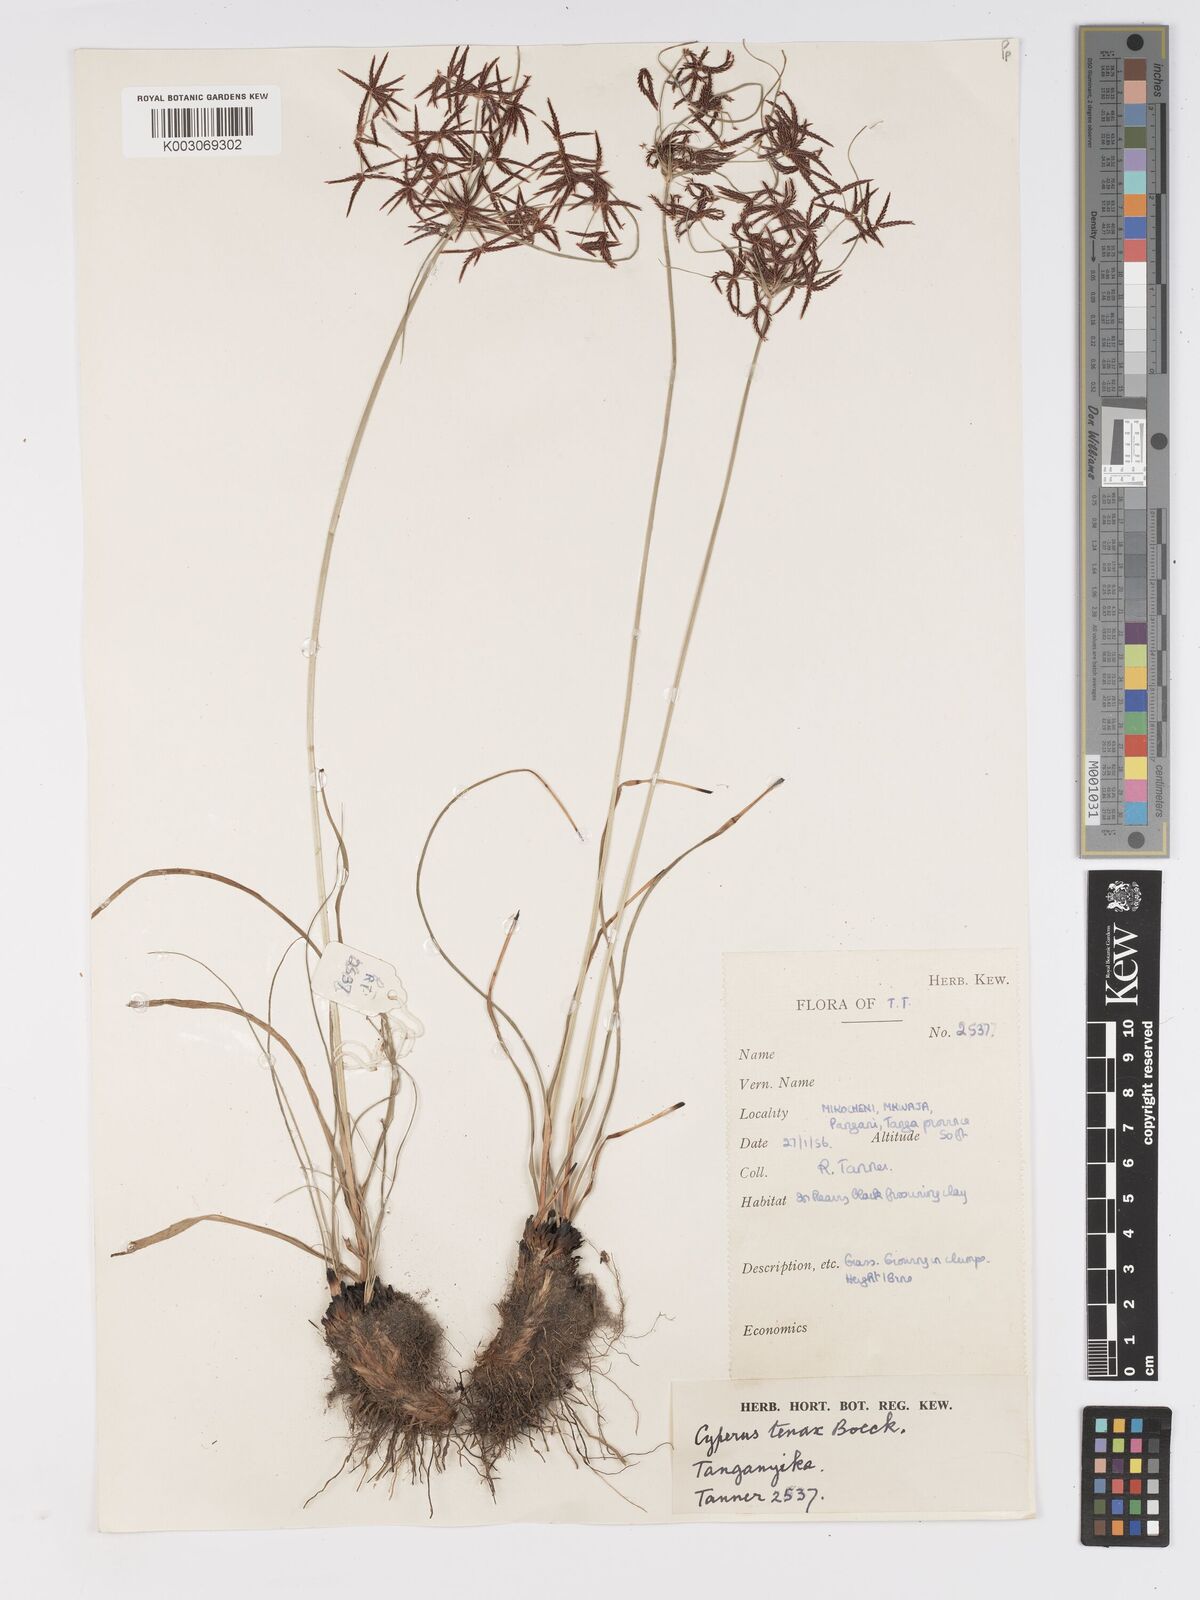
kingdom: Plantae
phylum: Tracheophyta
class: Liliopsida
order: Poales
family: Cyperaceae
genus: Cyperus
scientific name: Cyperus tenax
